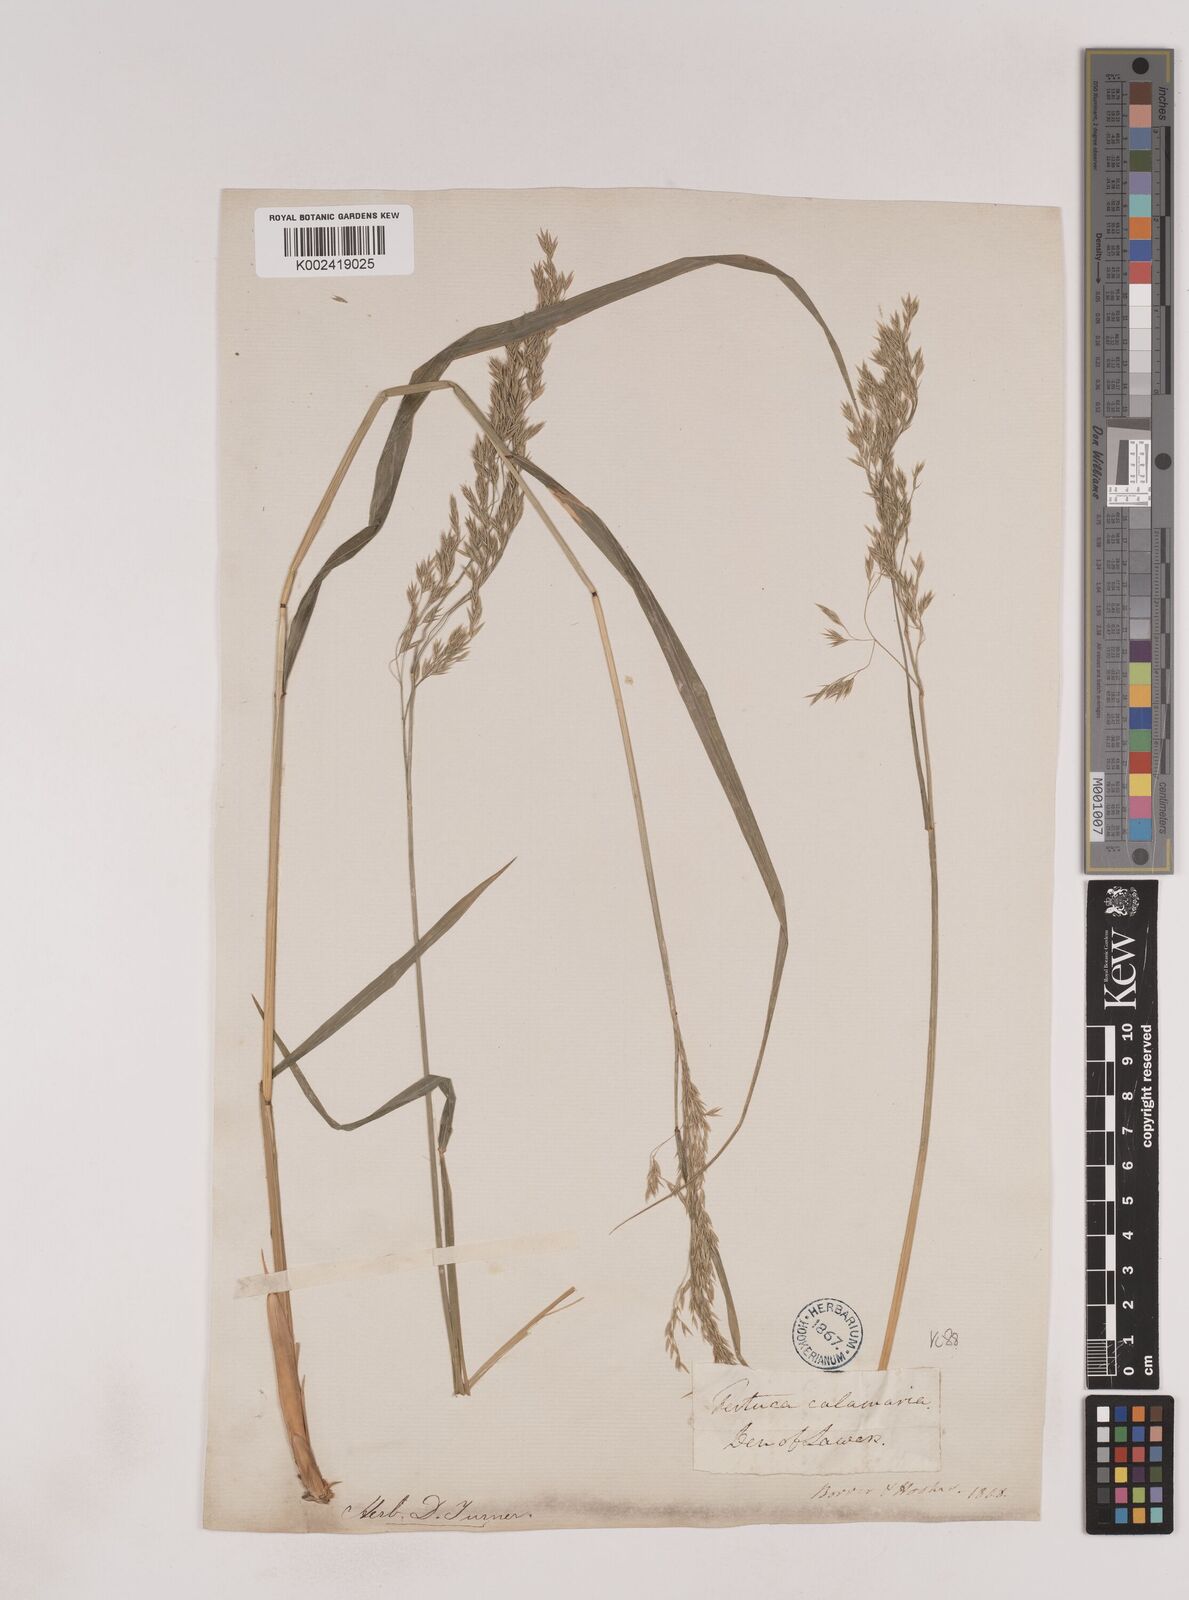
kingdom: Plantae
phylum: Tracheophyta
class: Liliopsida
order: Poales
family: Poaceae
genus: Festuca
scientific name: Festuca drymeja
